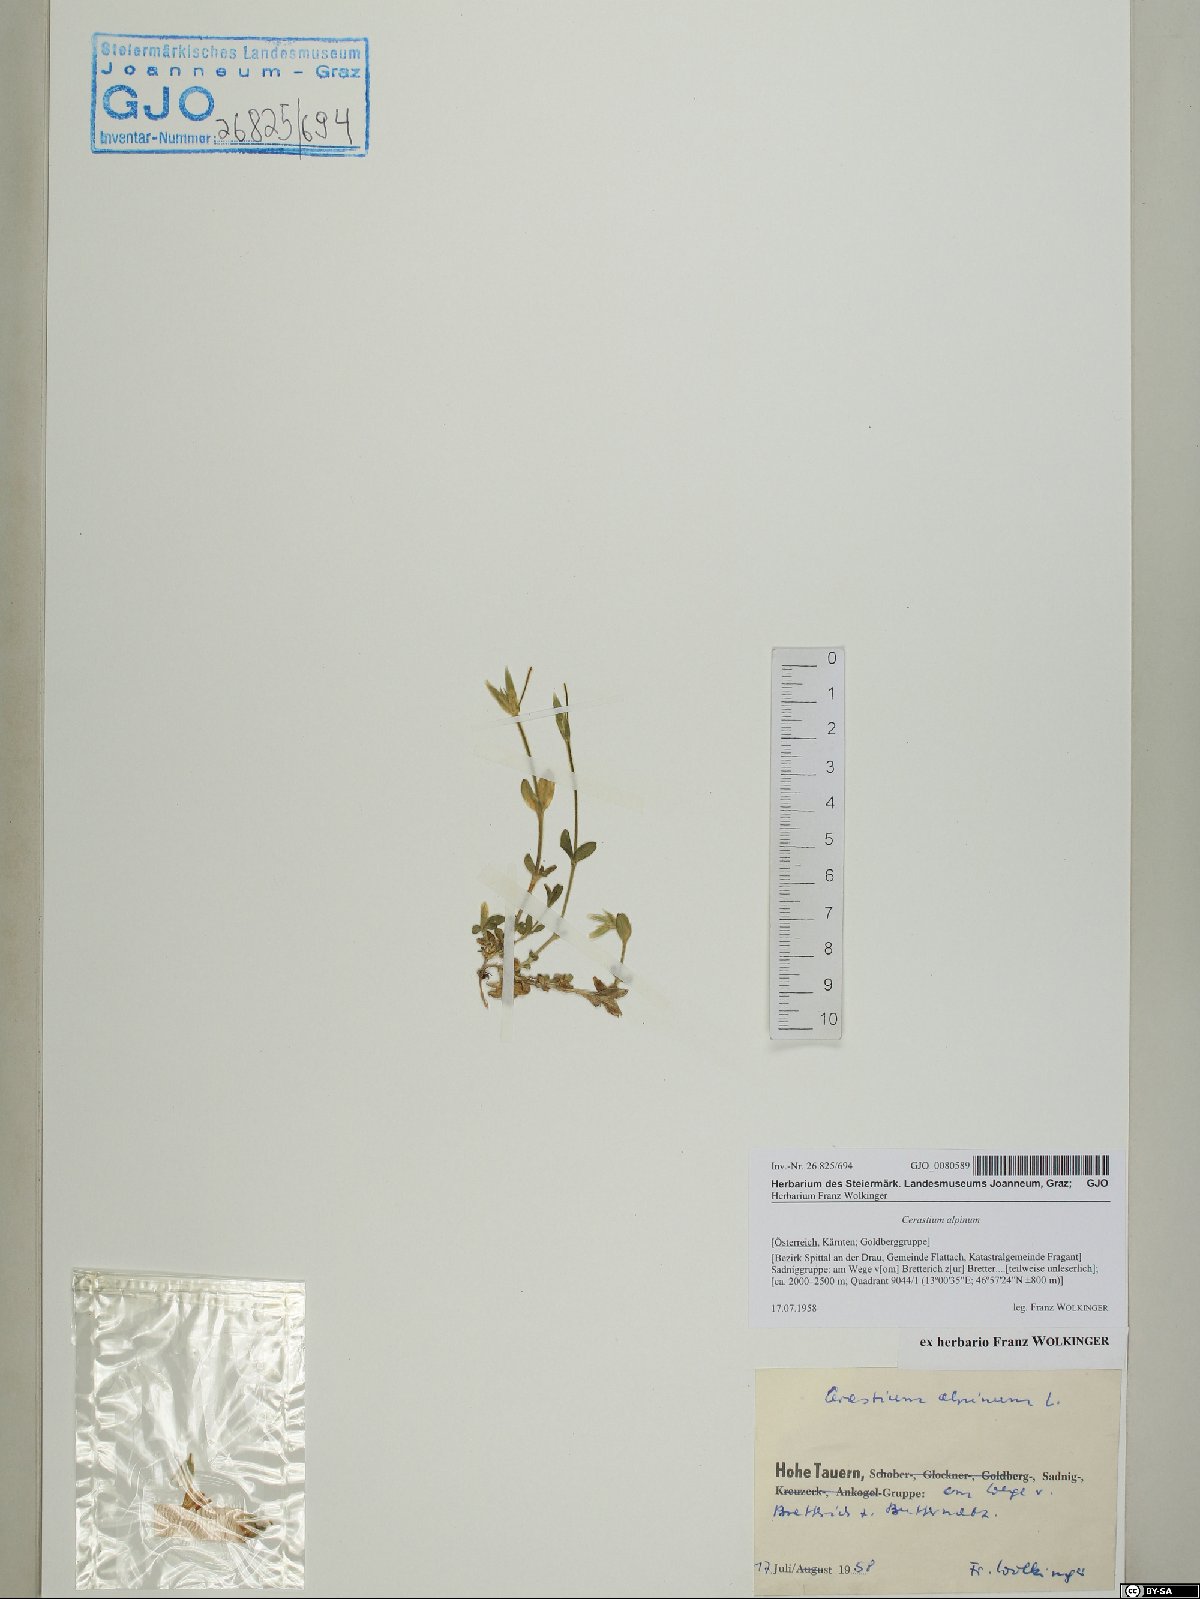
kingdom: Plantae
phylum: Tracheophyta
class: Magnoliopsida
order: Caryophyllales
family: Caryophyllaceae
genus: Cerastium
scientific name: Cerastium alpinum
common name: Alpine mouse-ear
